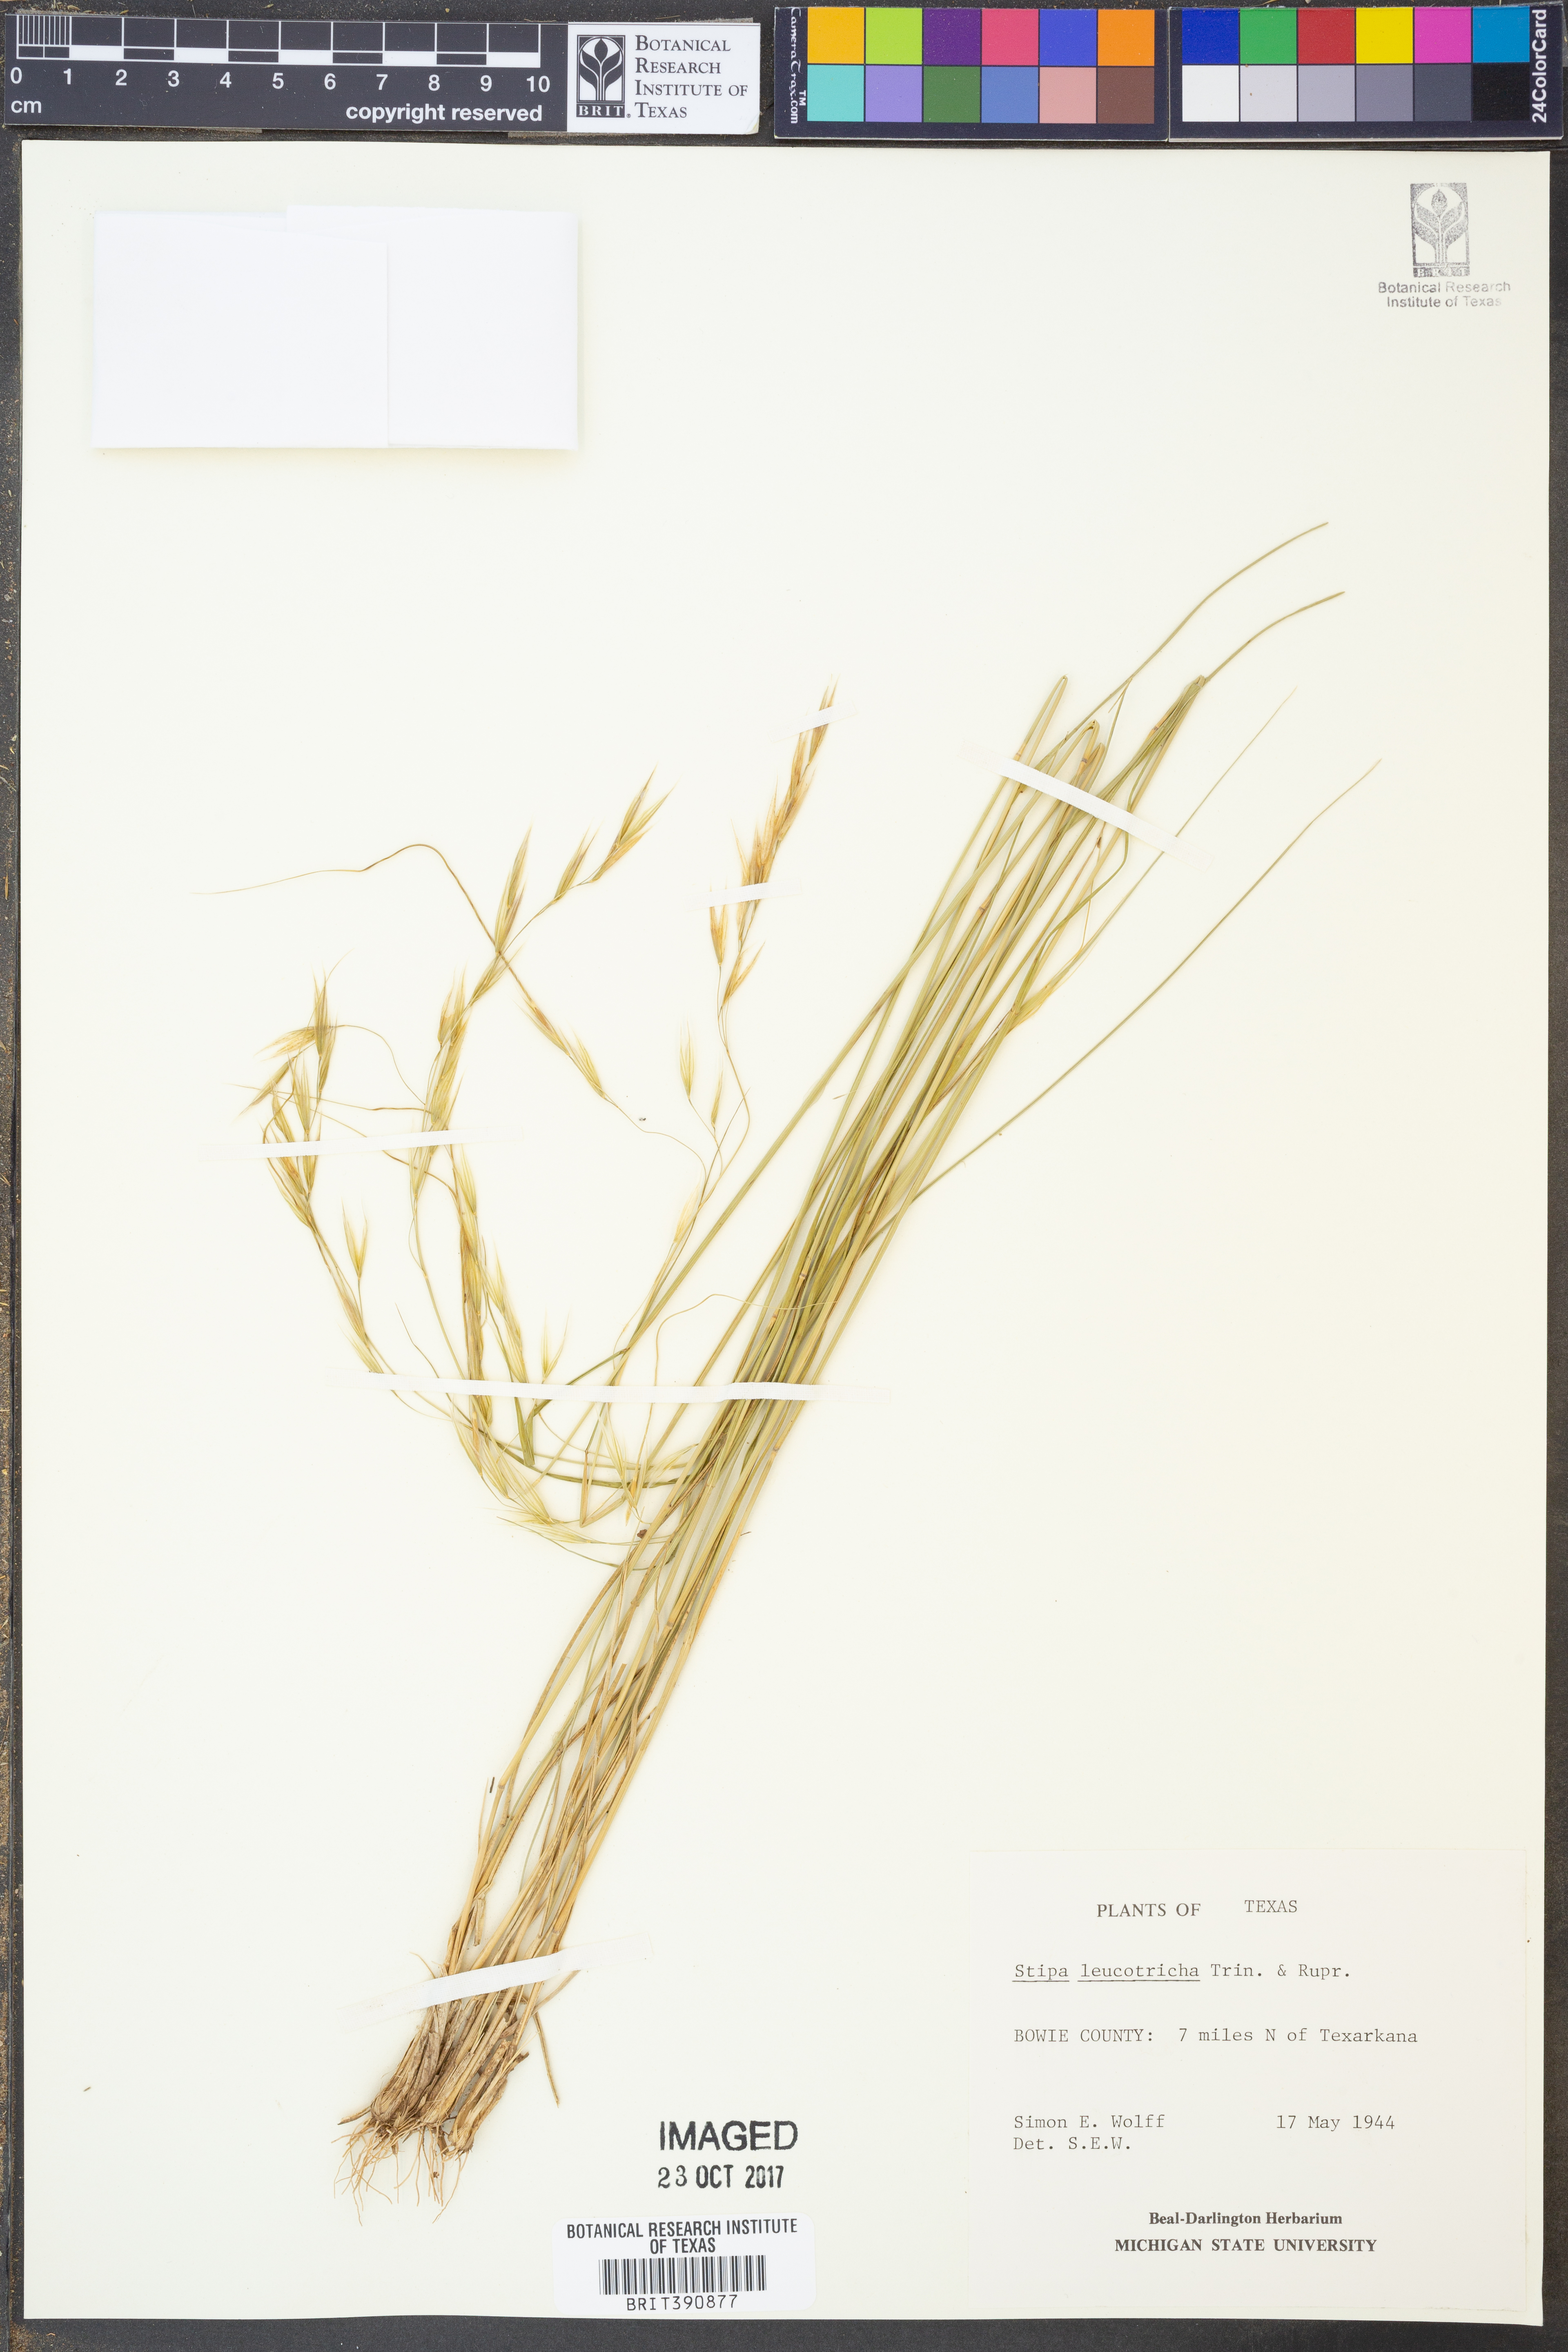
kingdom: Plantae
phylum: Tracheophyta
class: Liliopsida
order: Poales
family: Poaceae
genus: Nassella
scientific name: Nassella leucotricha
